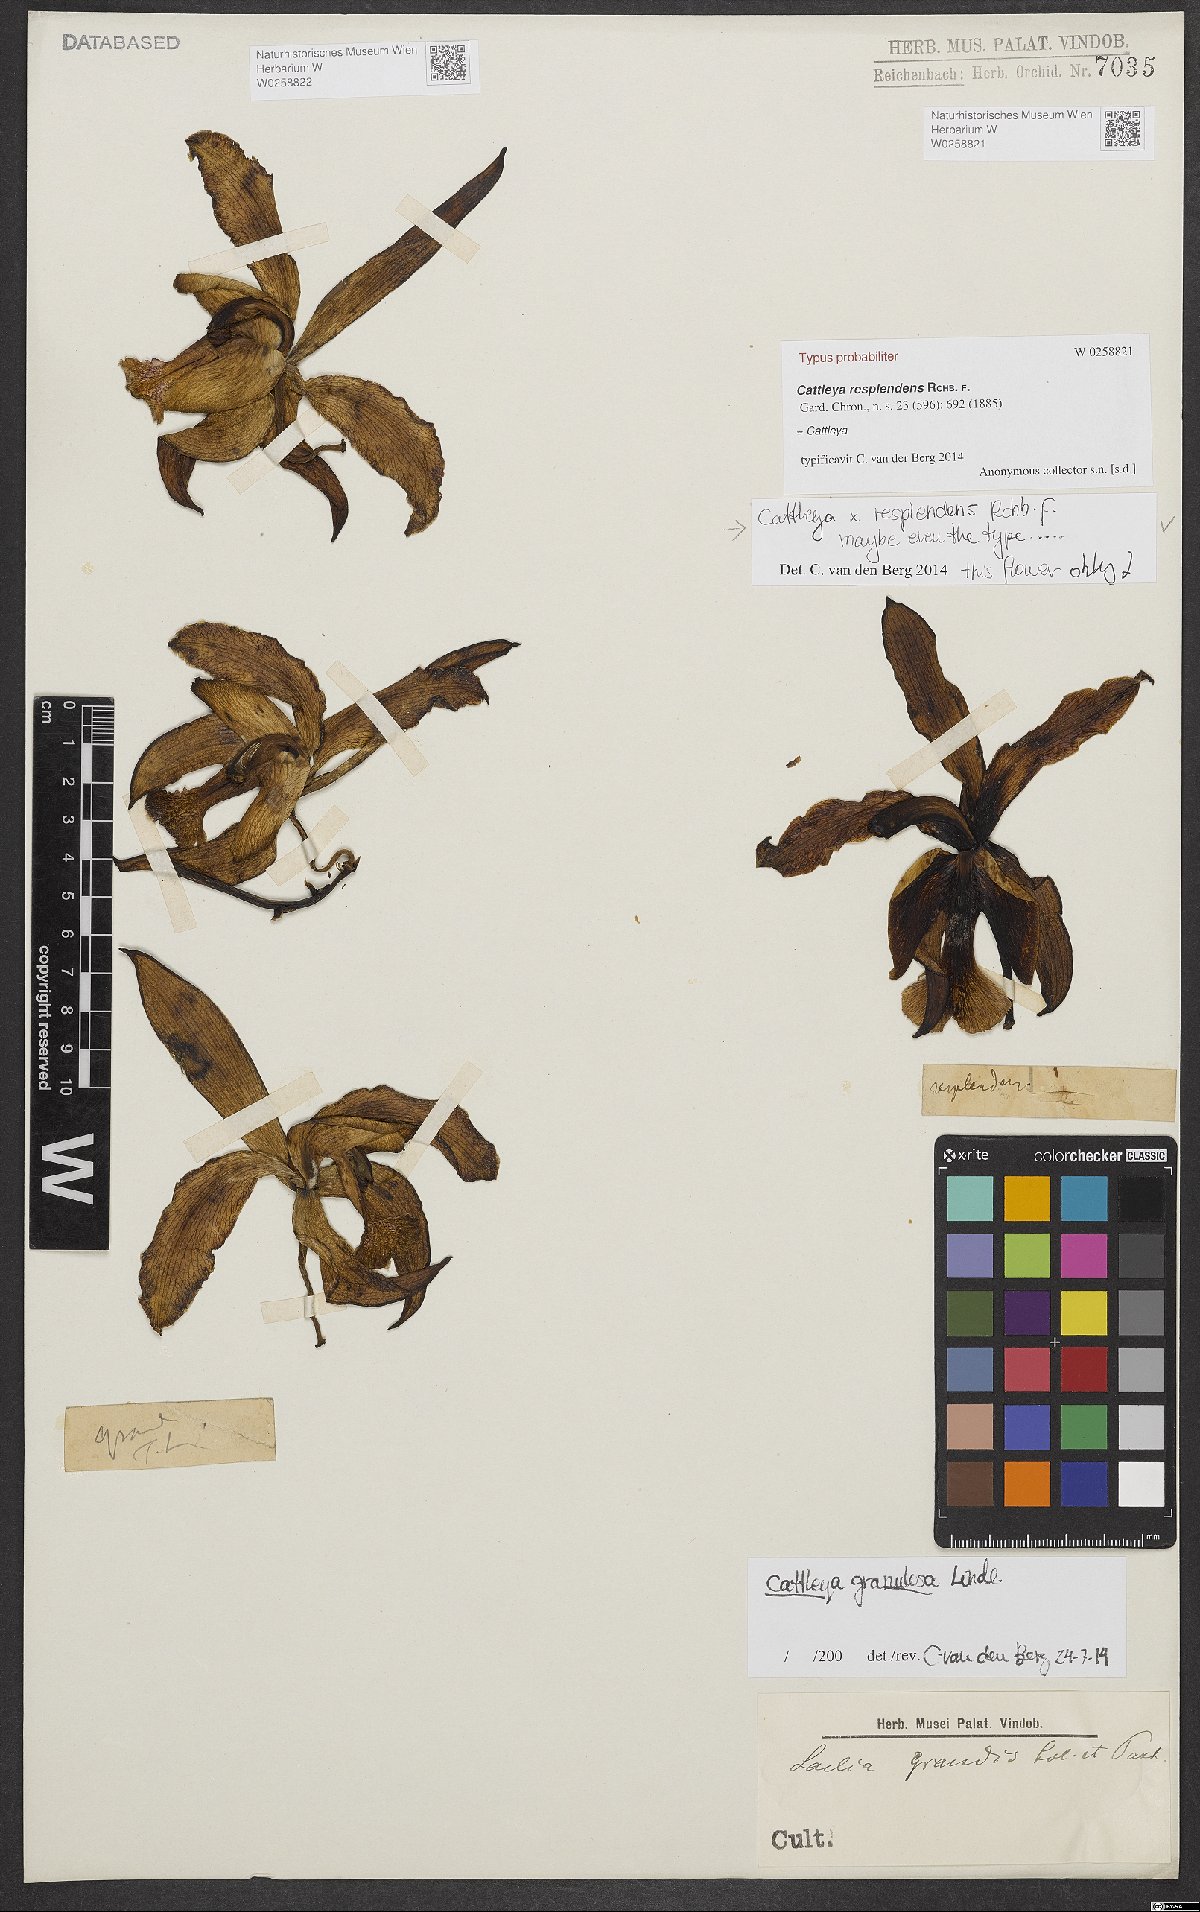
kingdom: Plantae
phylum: Tracheophyta
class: Liliopsida
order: Asparagales
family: Orchidaceae
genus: Cattleya
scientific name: Cattleya resplendens
